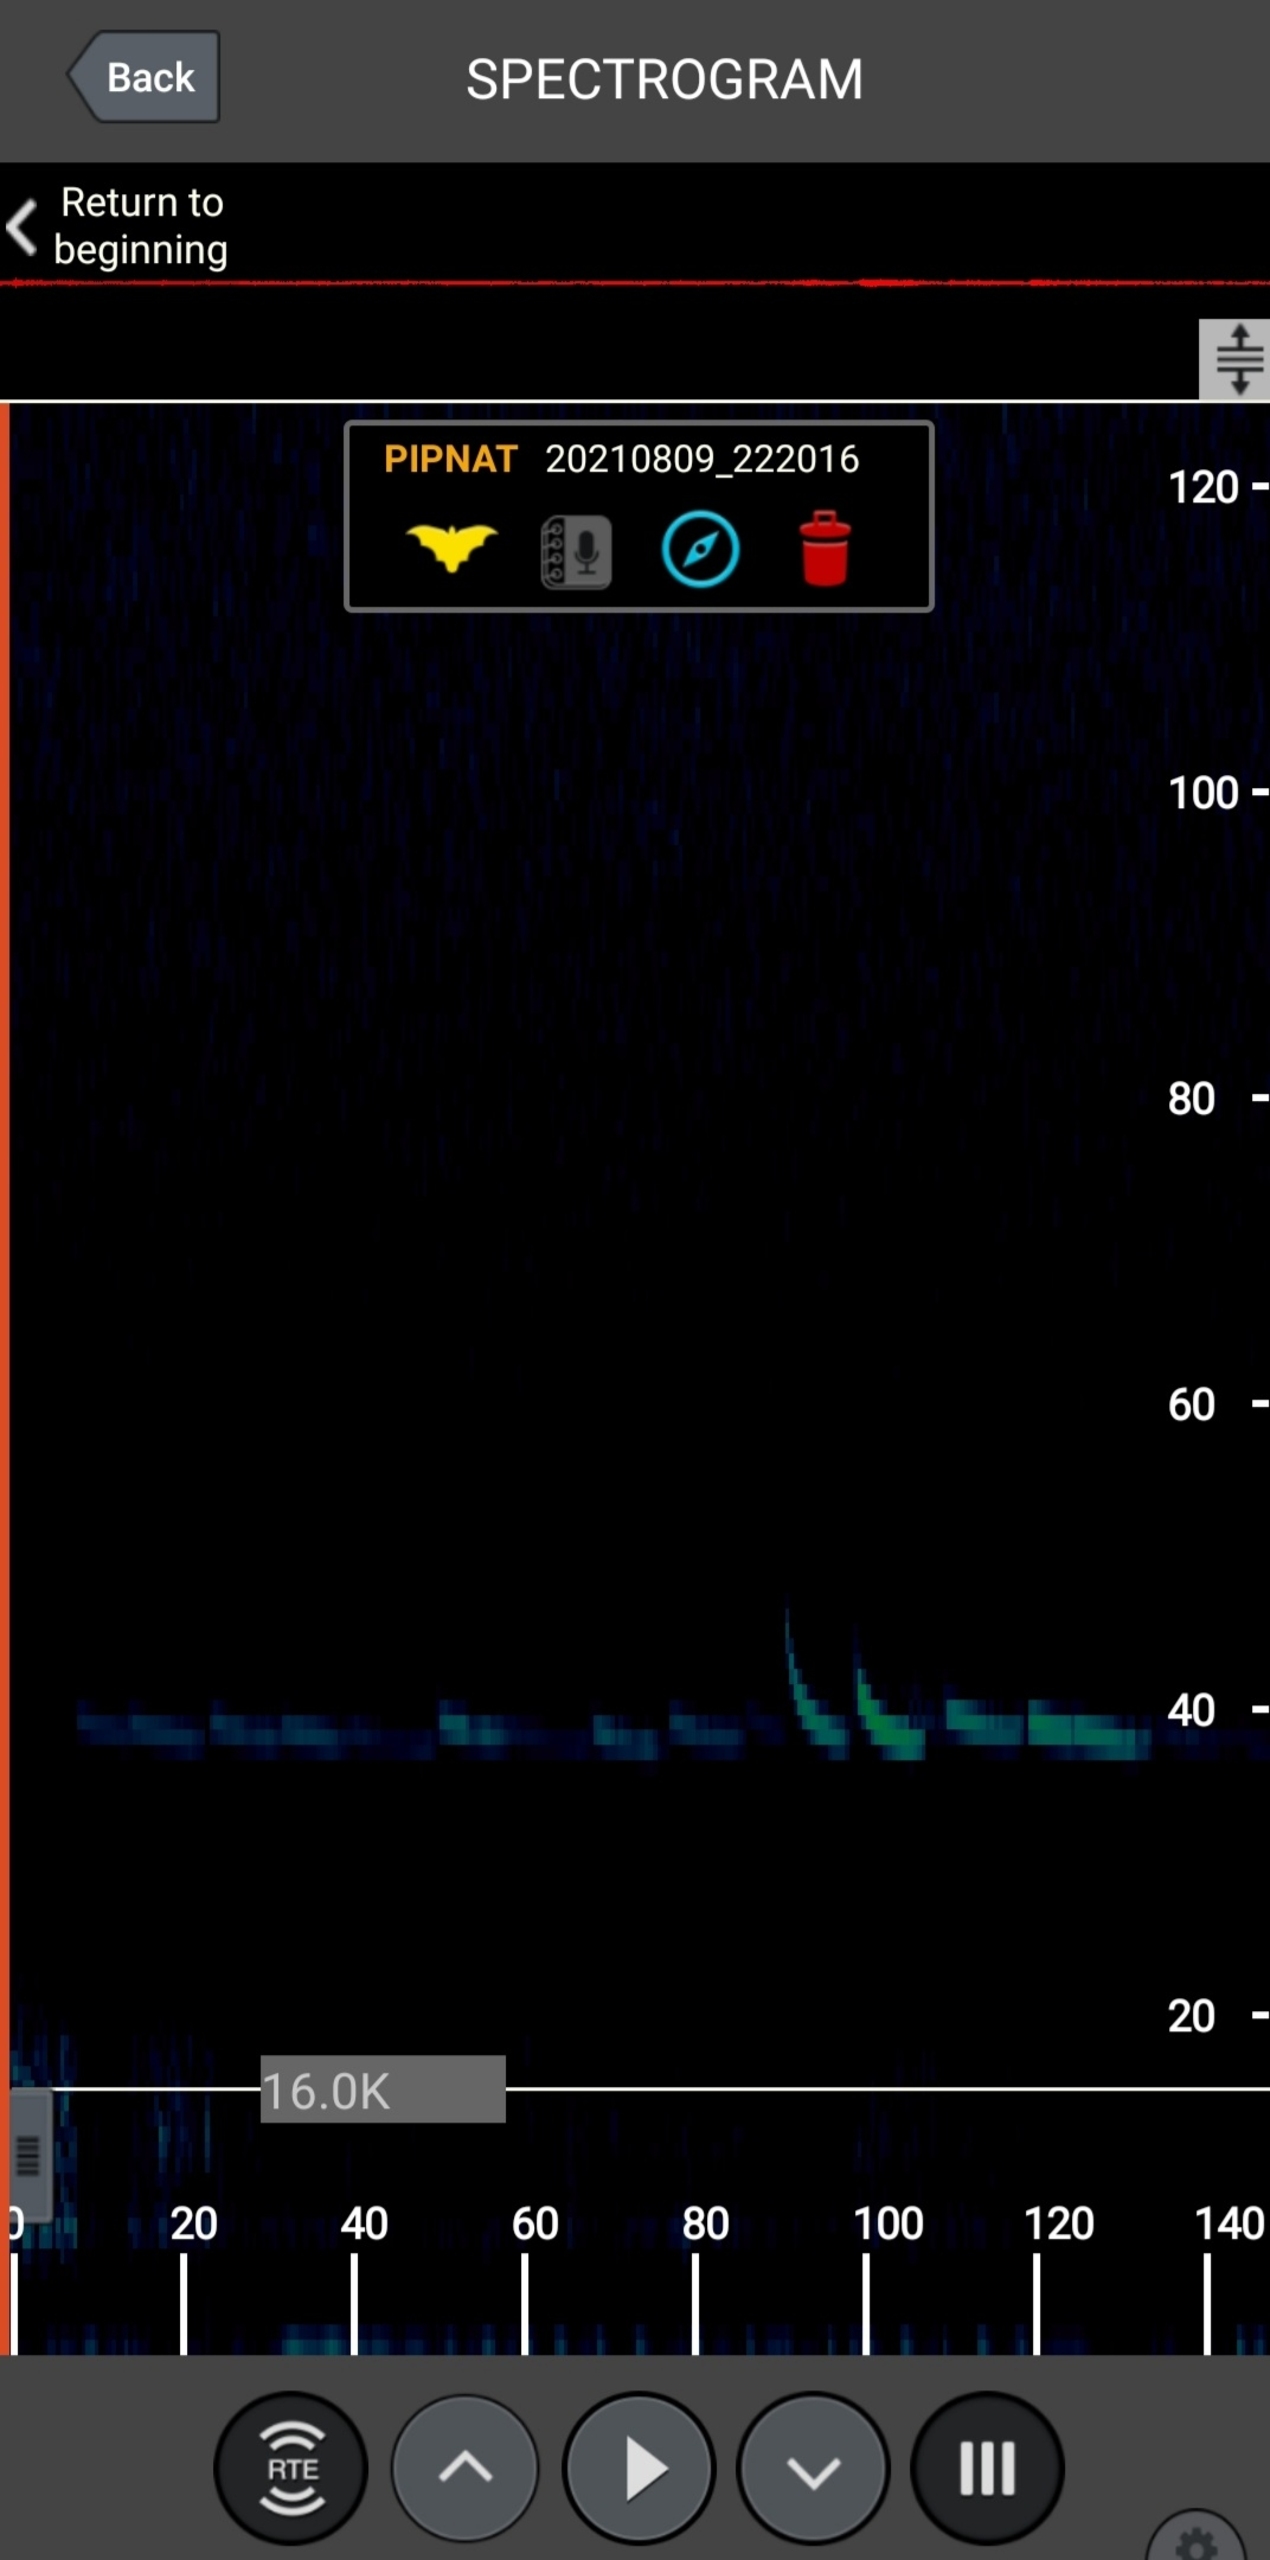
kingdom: Animalia
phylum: Chordata
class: Mammalia
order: Chiroptera
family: Vespertilionidae
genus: Pipistrellus
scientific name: Pipistrellus nathusii
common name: Troldflagermus
